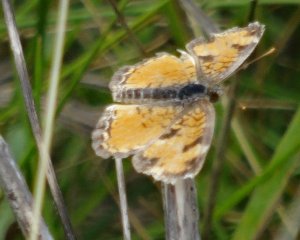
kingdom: Animalia
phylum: Arthropoda
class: Insecta
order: Lepidoptera
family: Nymphalidae
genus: Phyciodes
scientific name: Phyciodes tharos
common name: Northern Crescent
